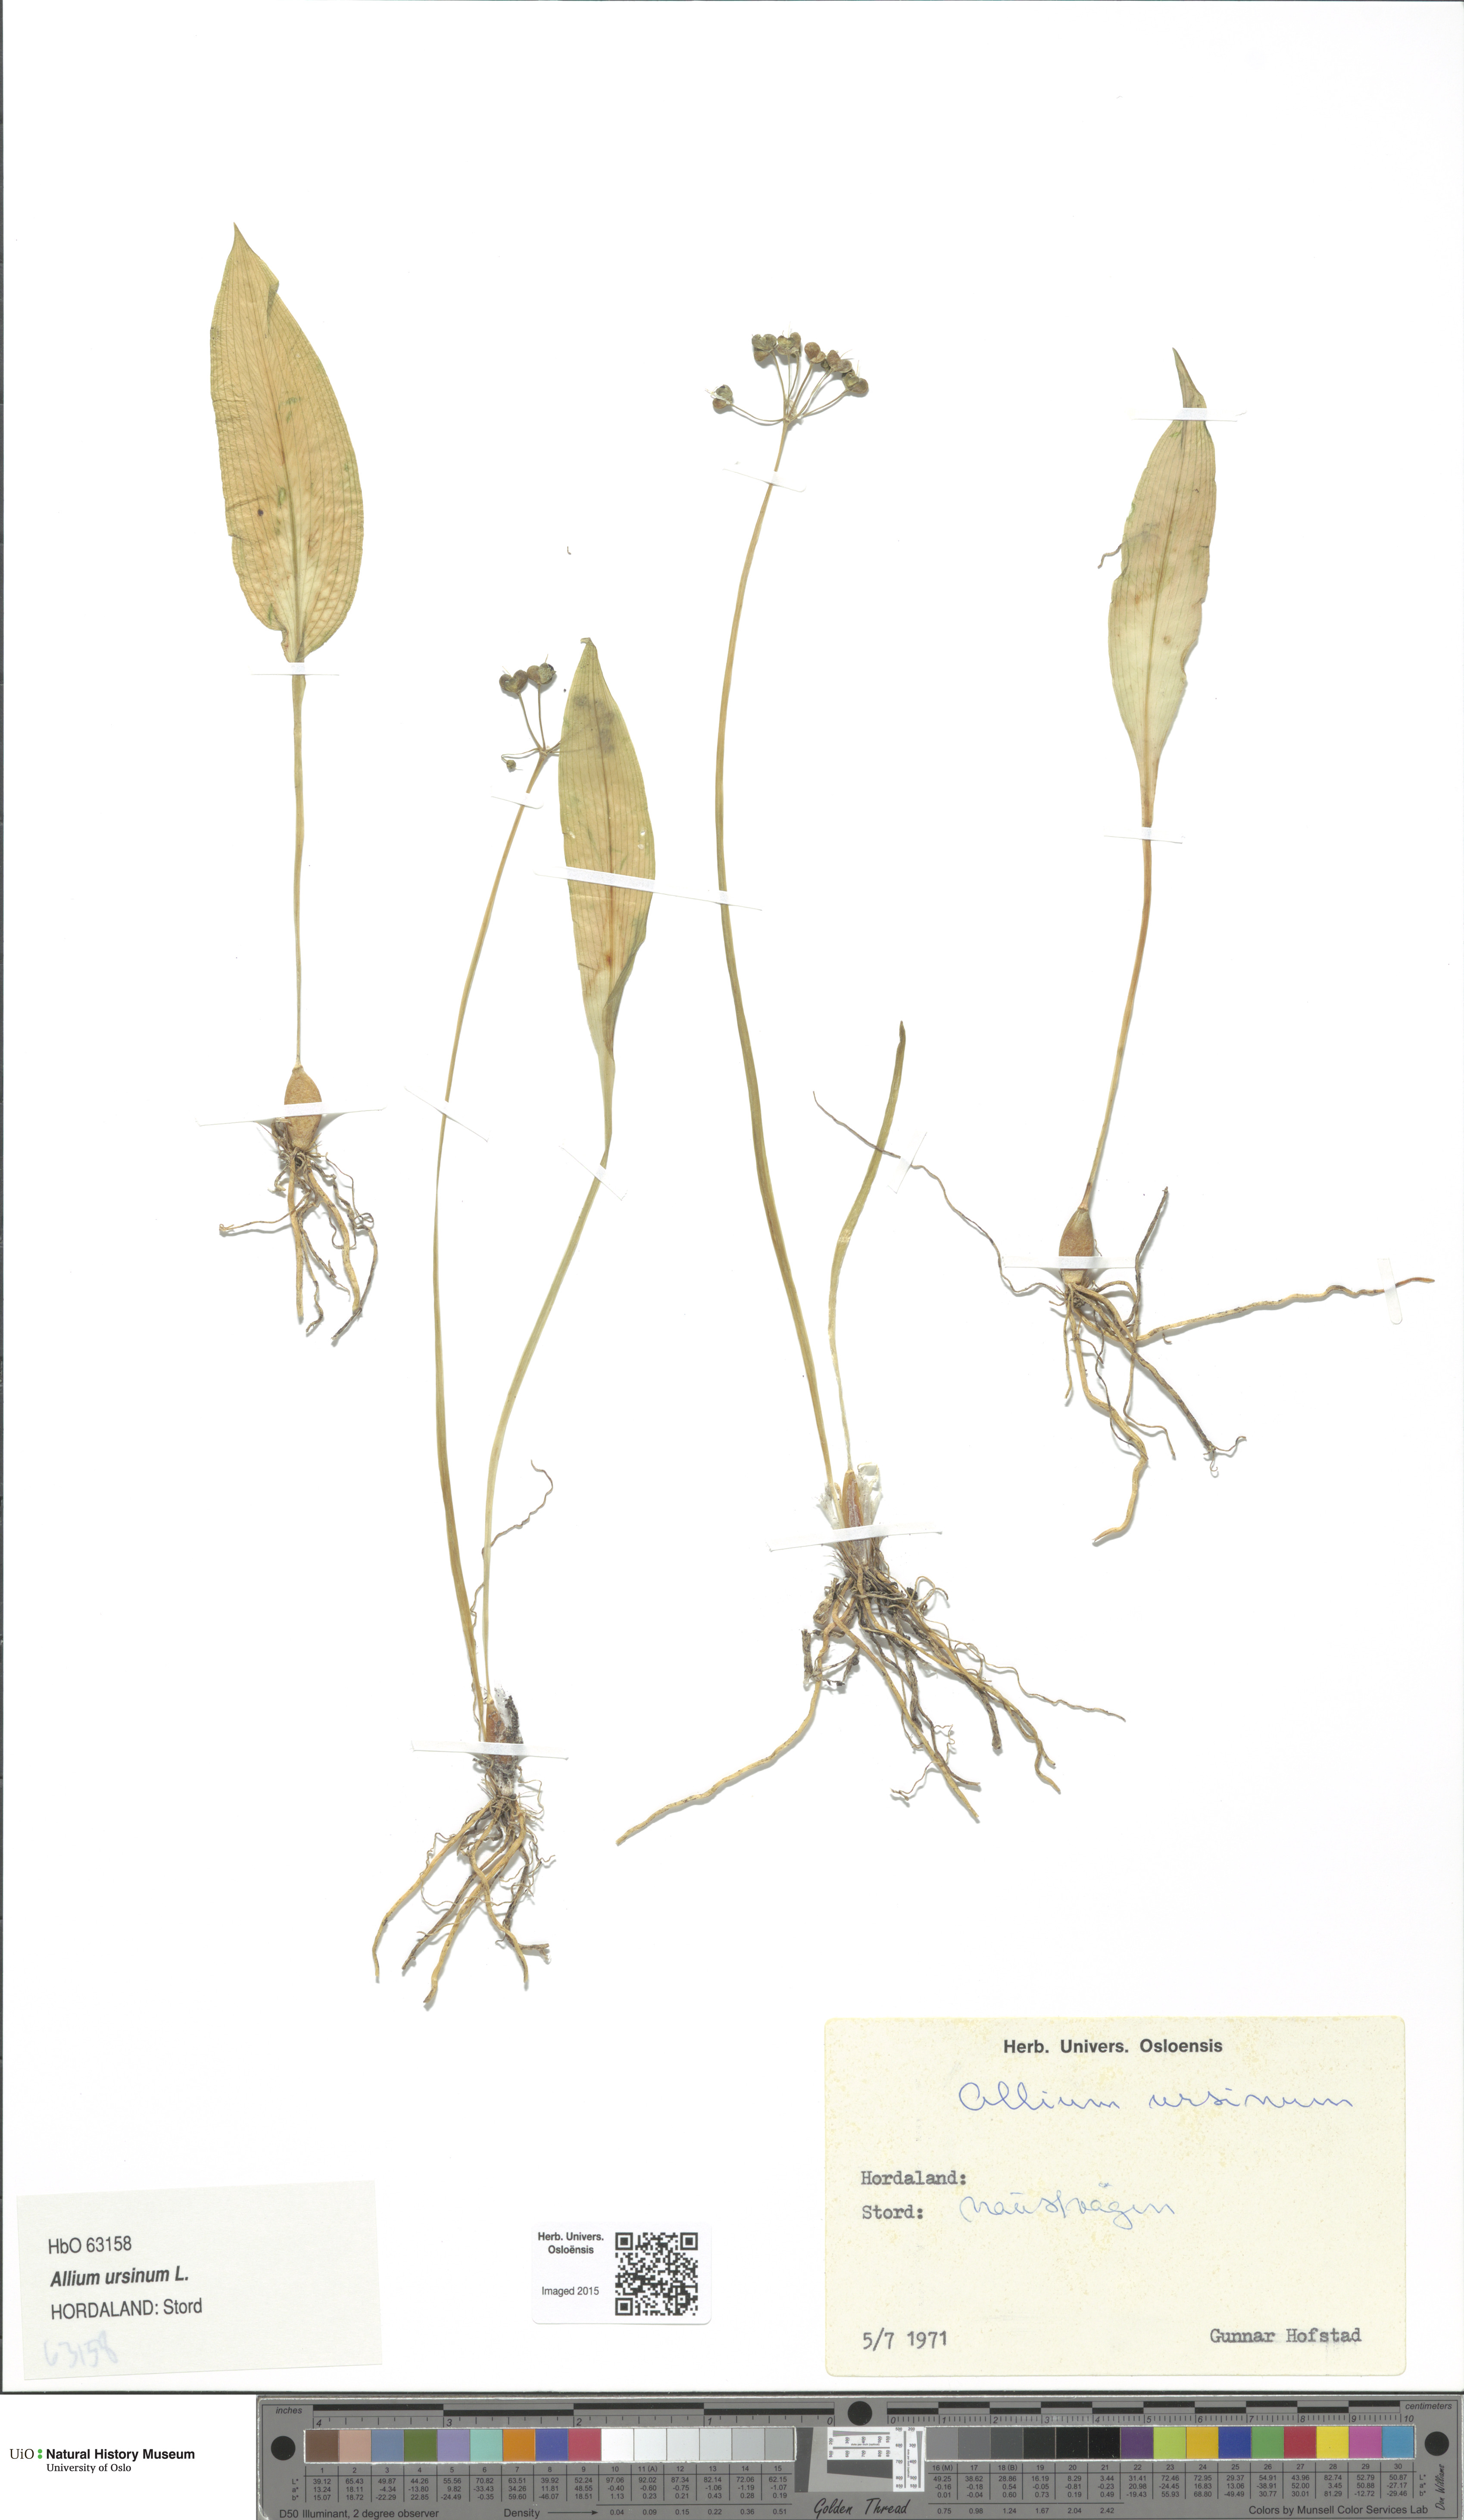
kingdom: Plantae
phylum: Tracheophyta
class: Liliopsida
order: Asparagales
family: Amaryllidaceae
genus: Allium
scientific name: Allium ursinum
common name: Ramsons
